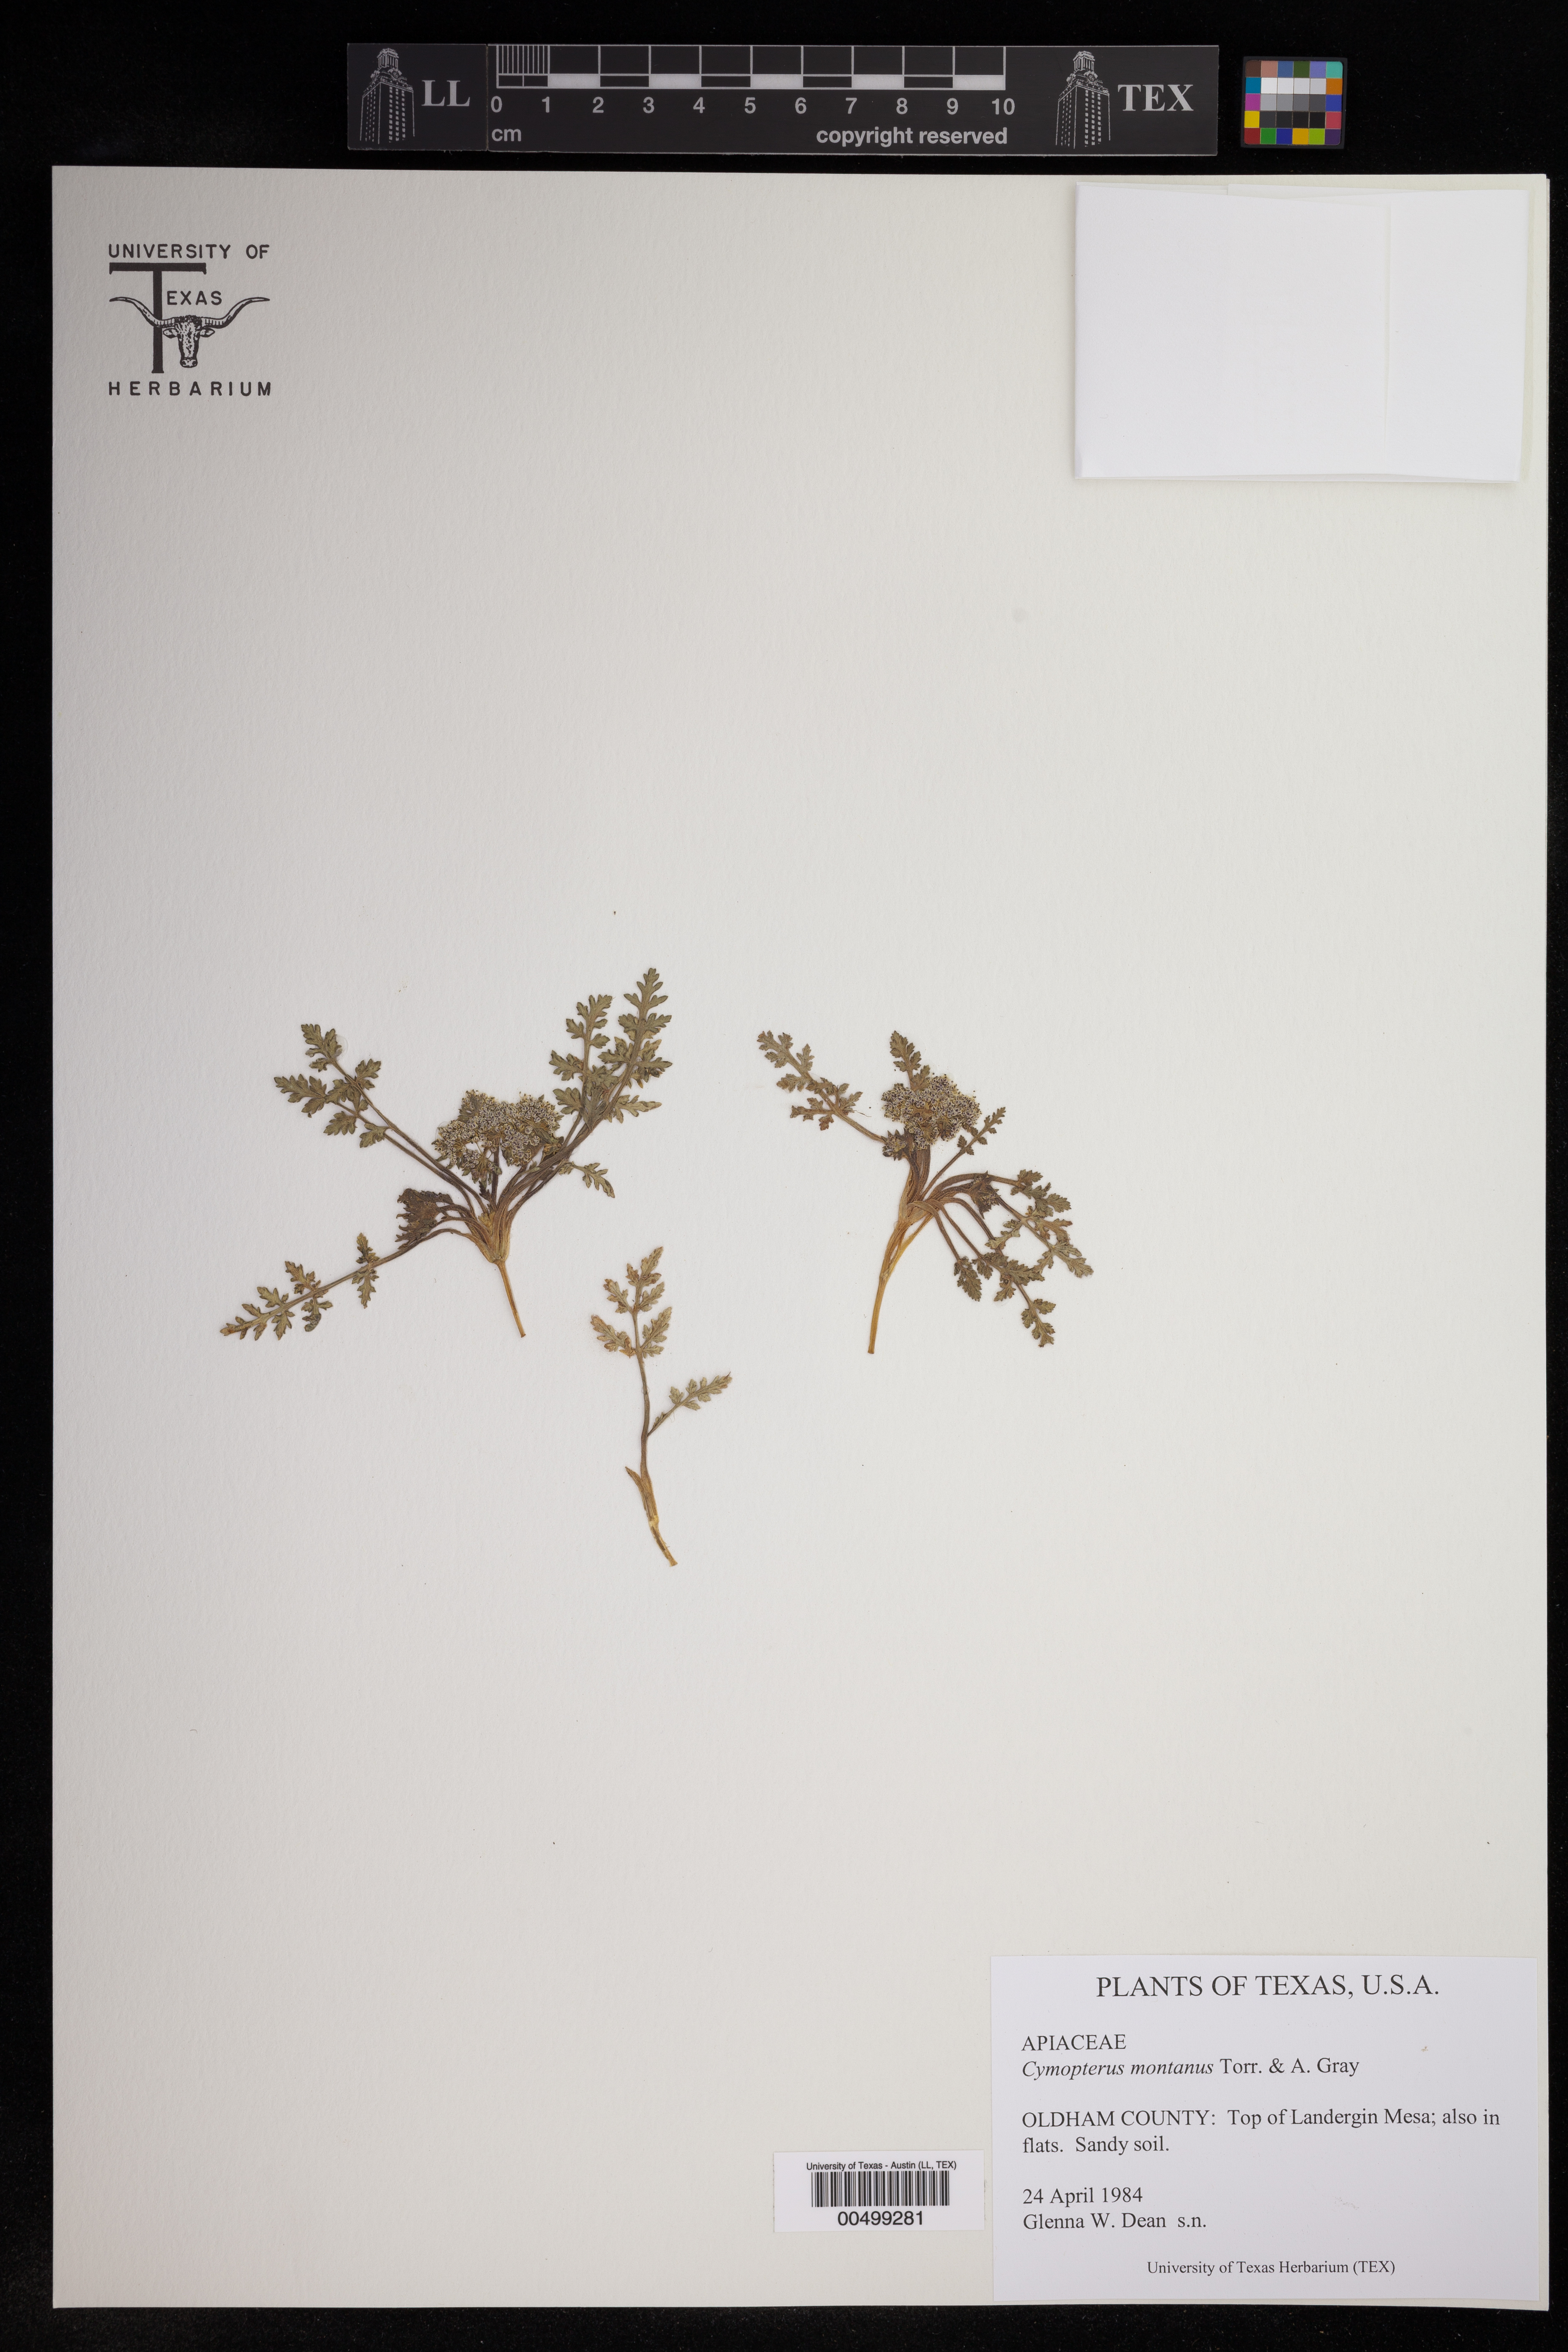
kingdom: Plantae
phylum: Tracheophyta
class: Magnoliopsida
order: Apiales
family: Apiaceae
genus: Cymopterus
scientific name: Cymopterus montanus
